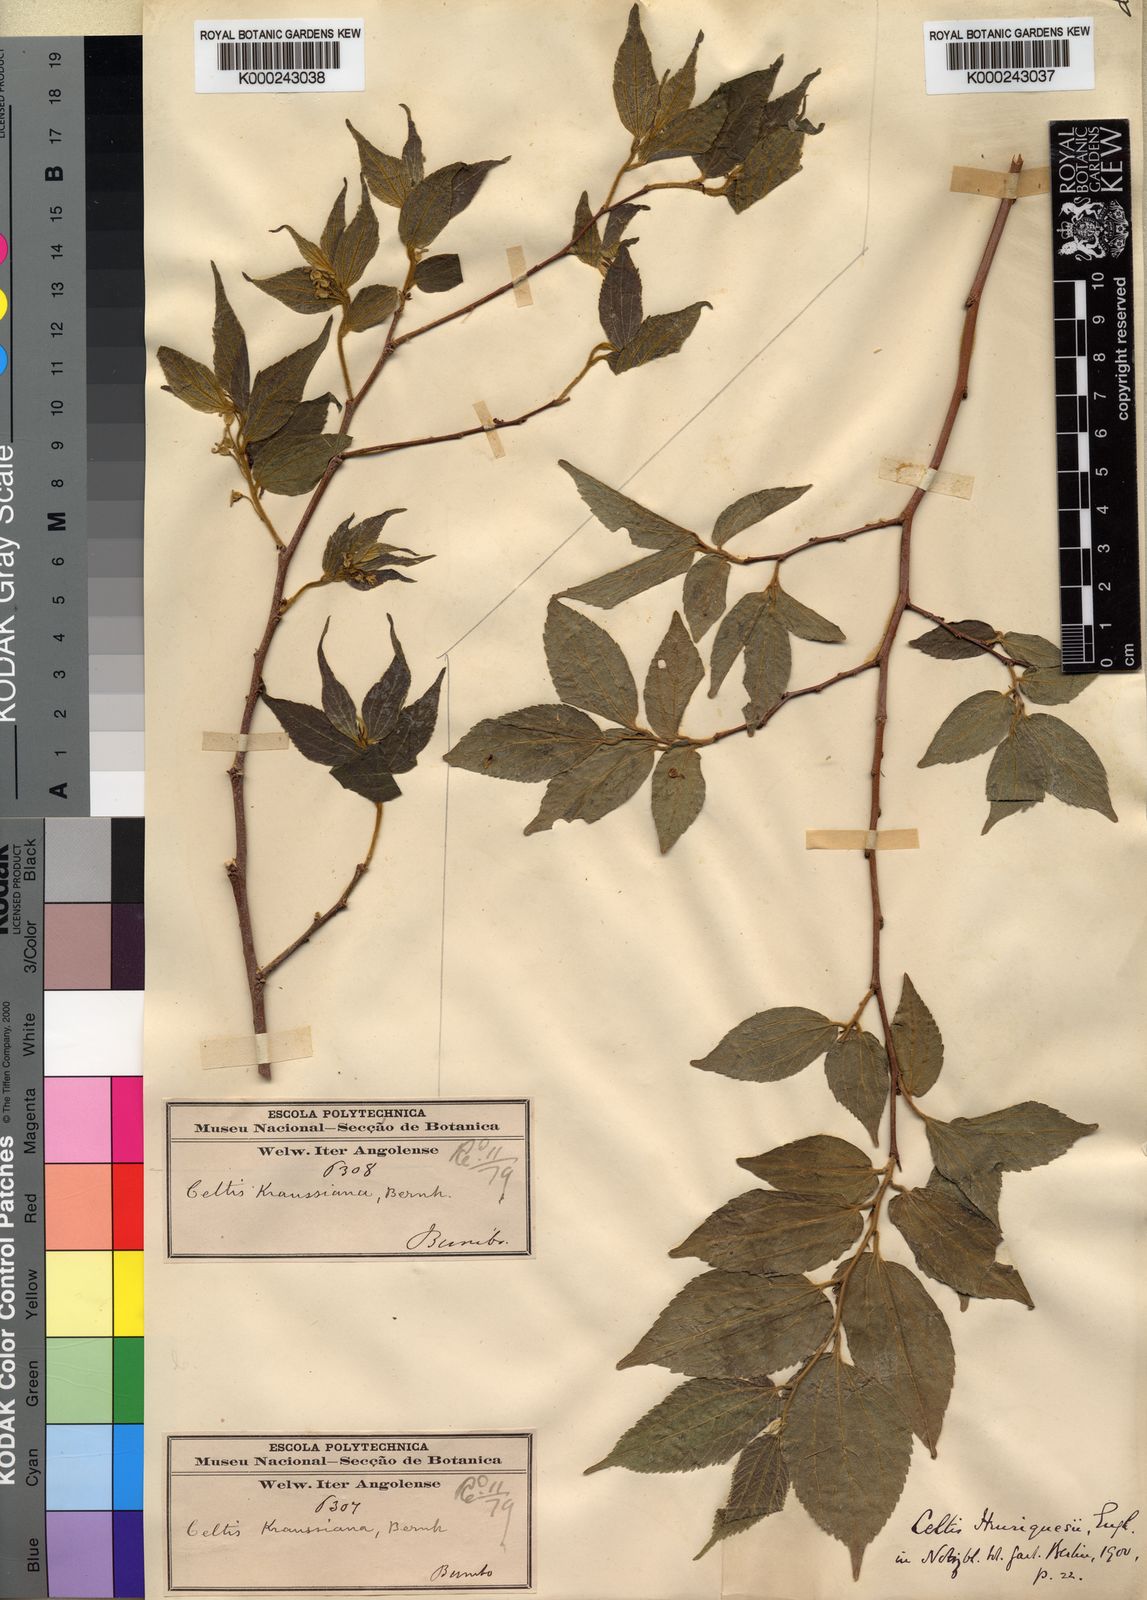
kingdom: Plantae
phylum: Tracheophyta
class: Magnoliopsida
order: Rosales
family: Cannabaceae
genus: Celtis
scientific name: Celtis africana
